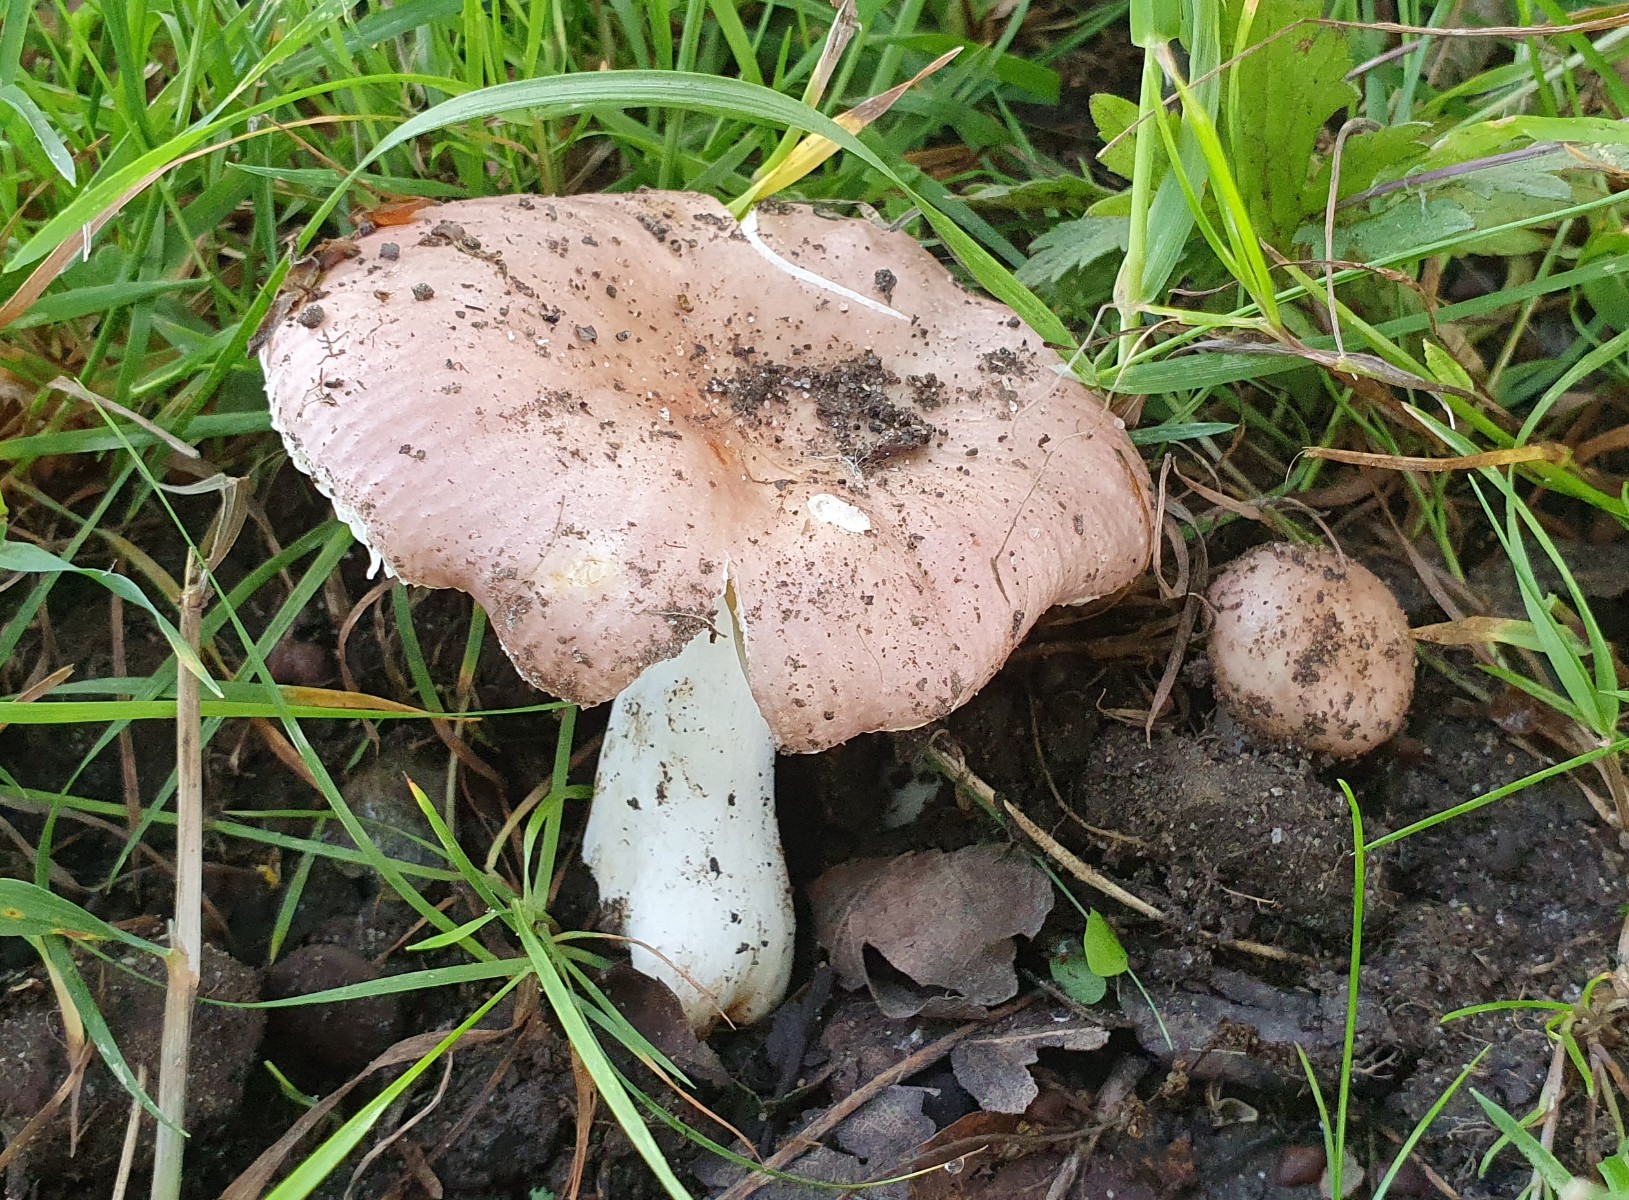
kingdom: Fungi
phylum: Basidiomycota
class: Agaricomycetes
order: Russulales
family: Russulaceae
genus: Russula
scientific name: Russula odorata
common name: duft-skørhat
